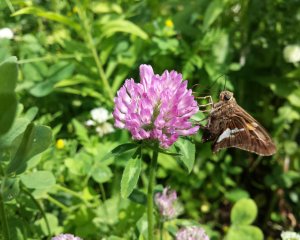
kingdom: Animalia
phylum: Arthropoda
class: Insecta
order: Lepidoptera
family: Hesperiidae
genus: Epargyreus
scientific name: Epargyreus clarus
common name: Silver-spotted Skipper
